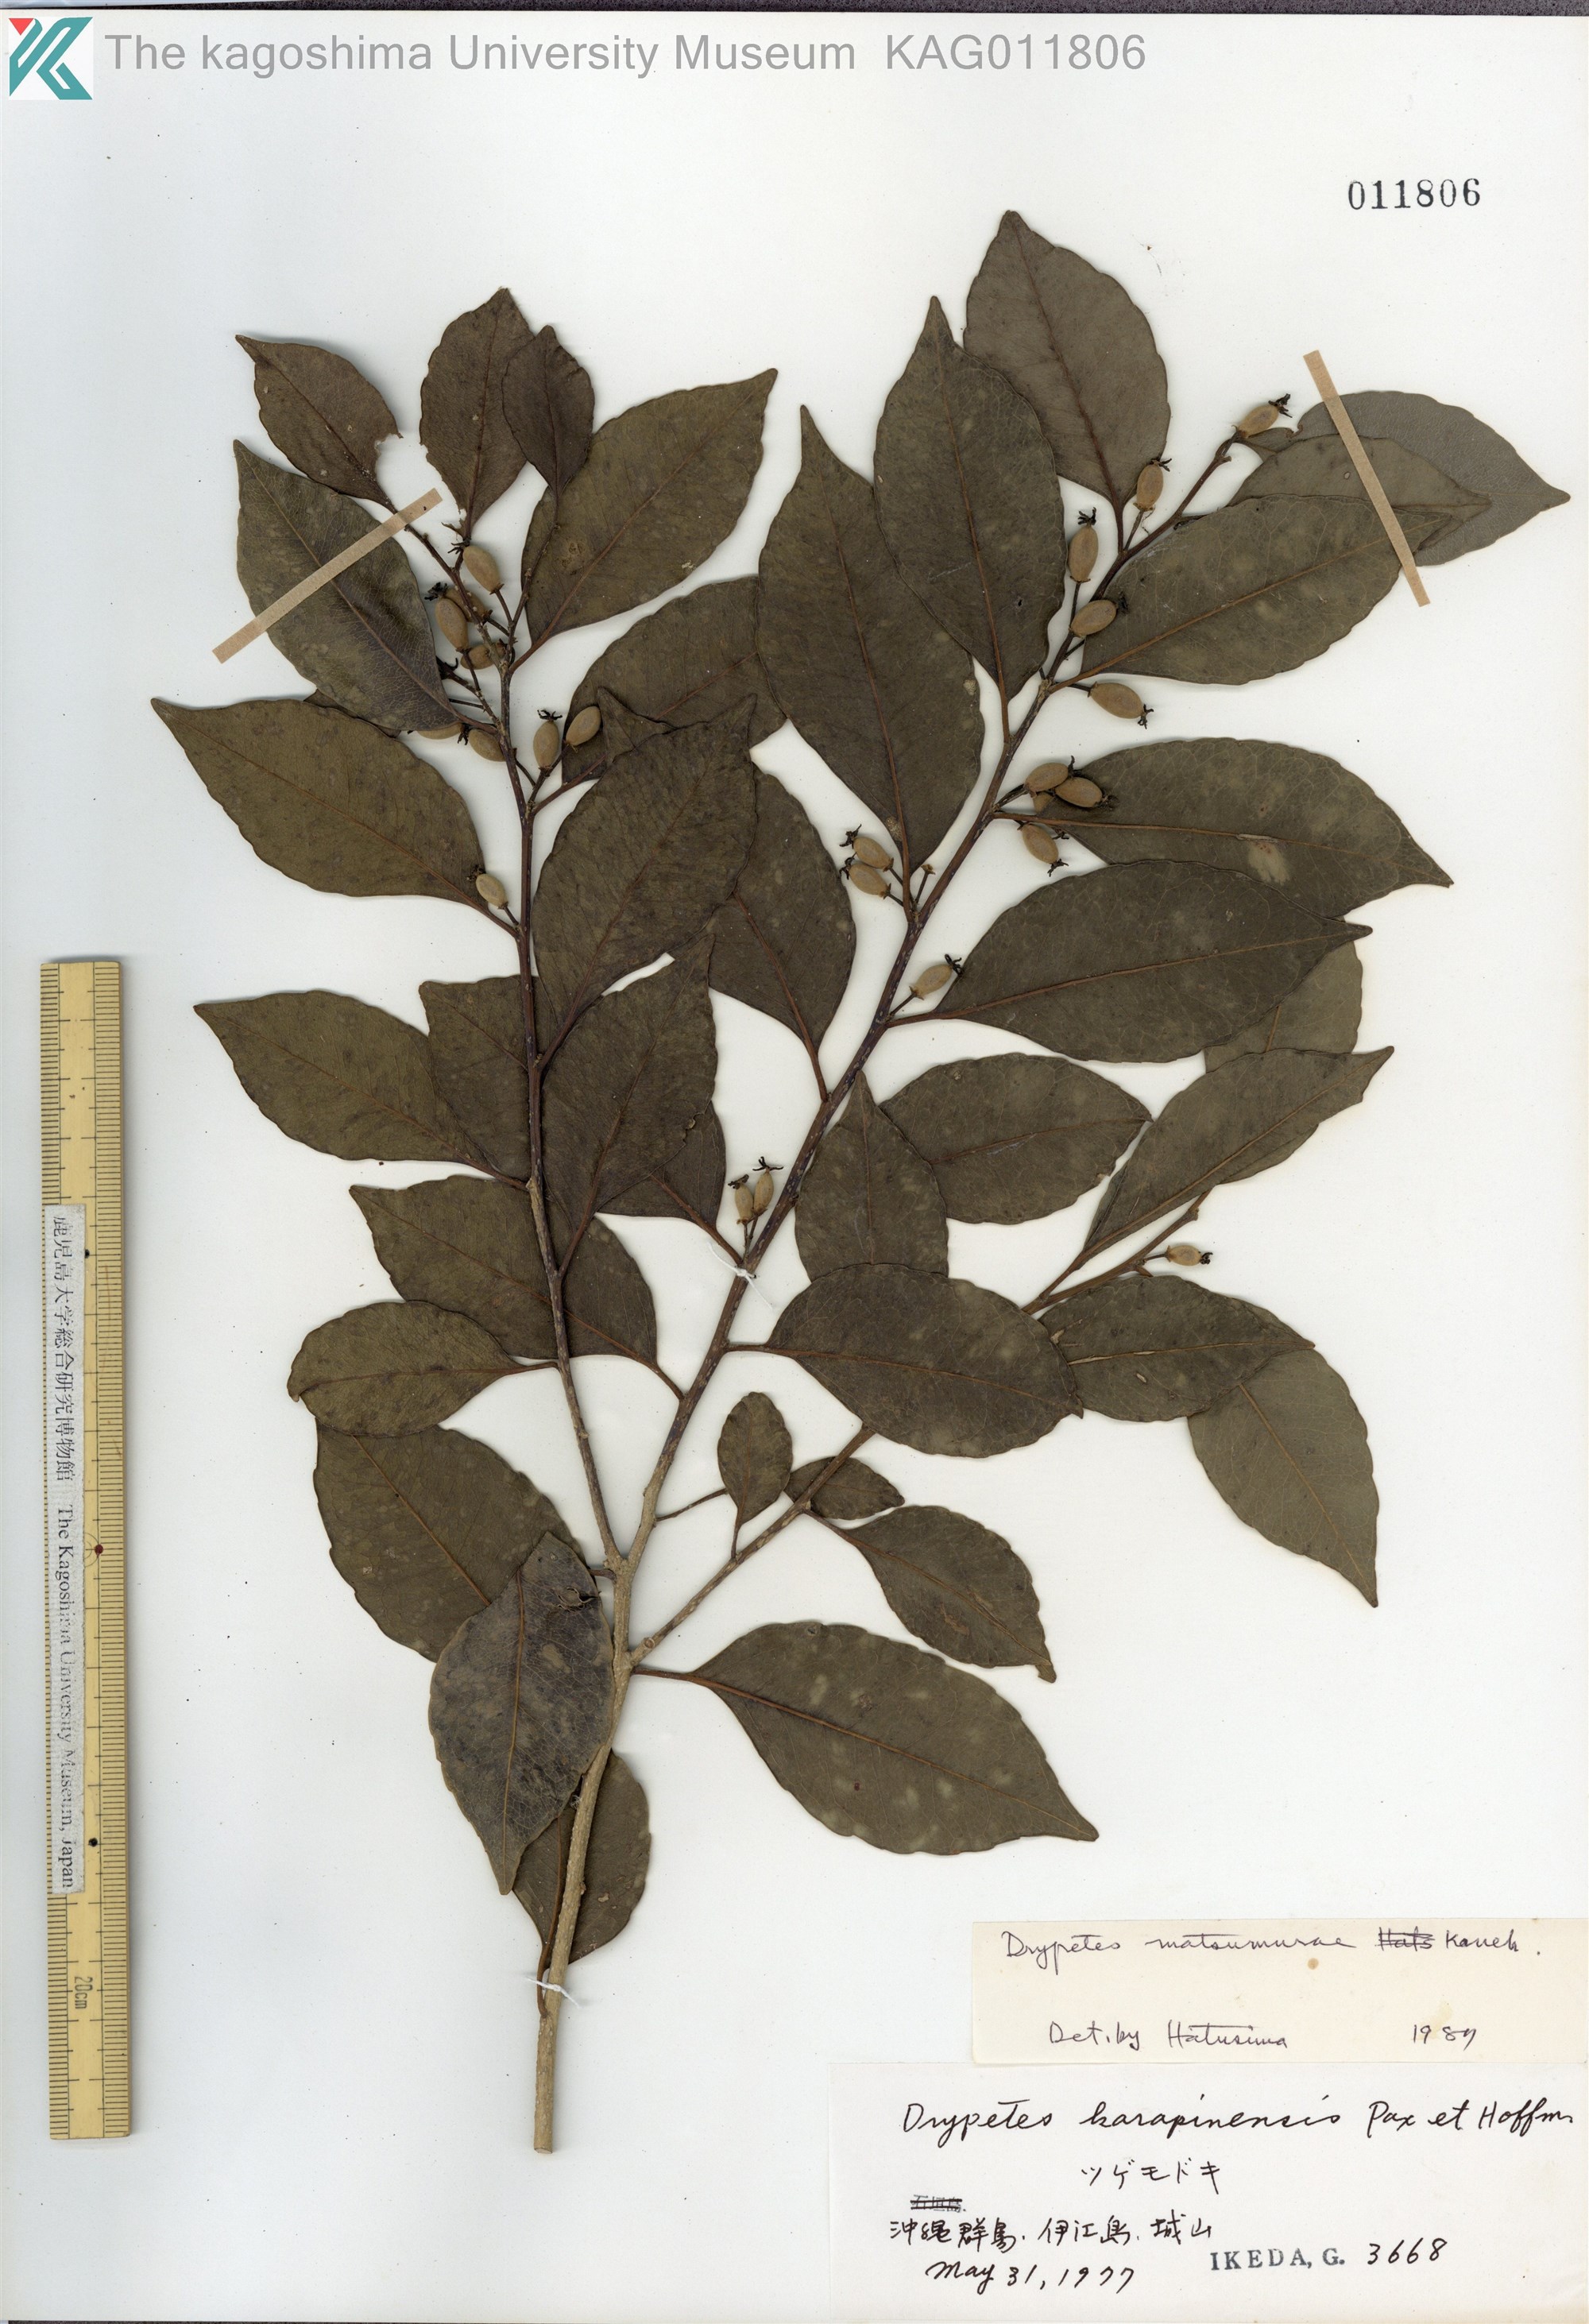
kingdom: Plantae
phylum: Tracheophyta
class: Magnoliopsida
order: Malpighiales
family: Putranjivaceae
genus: Putranjiva
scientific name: Putranjiva matsumurae
